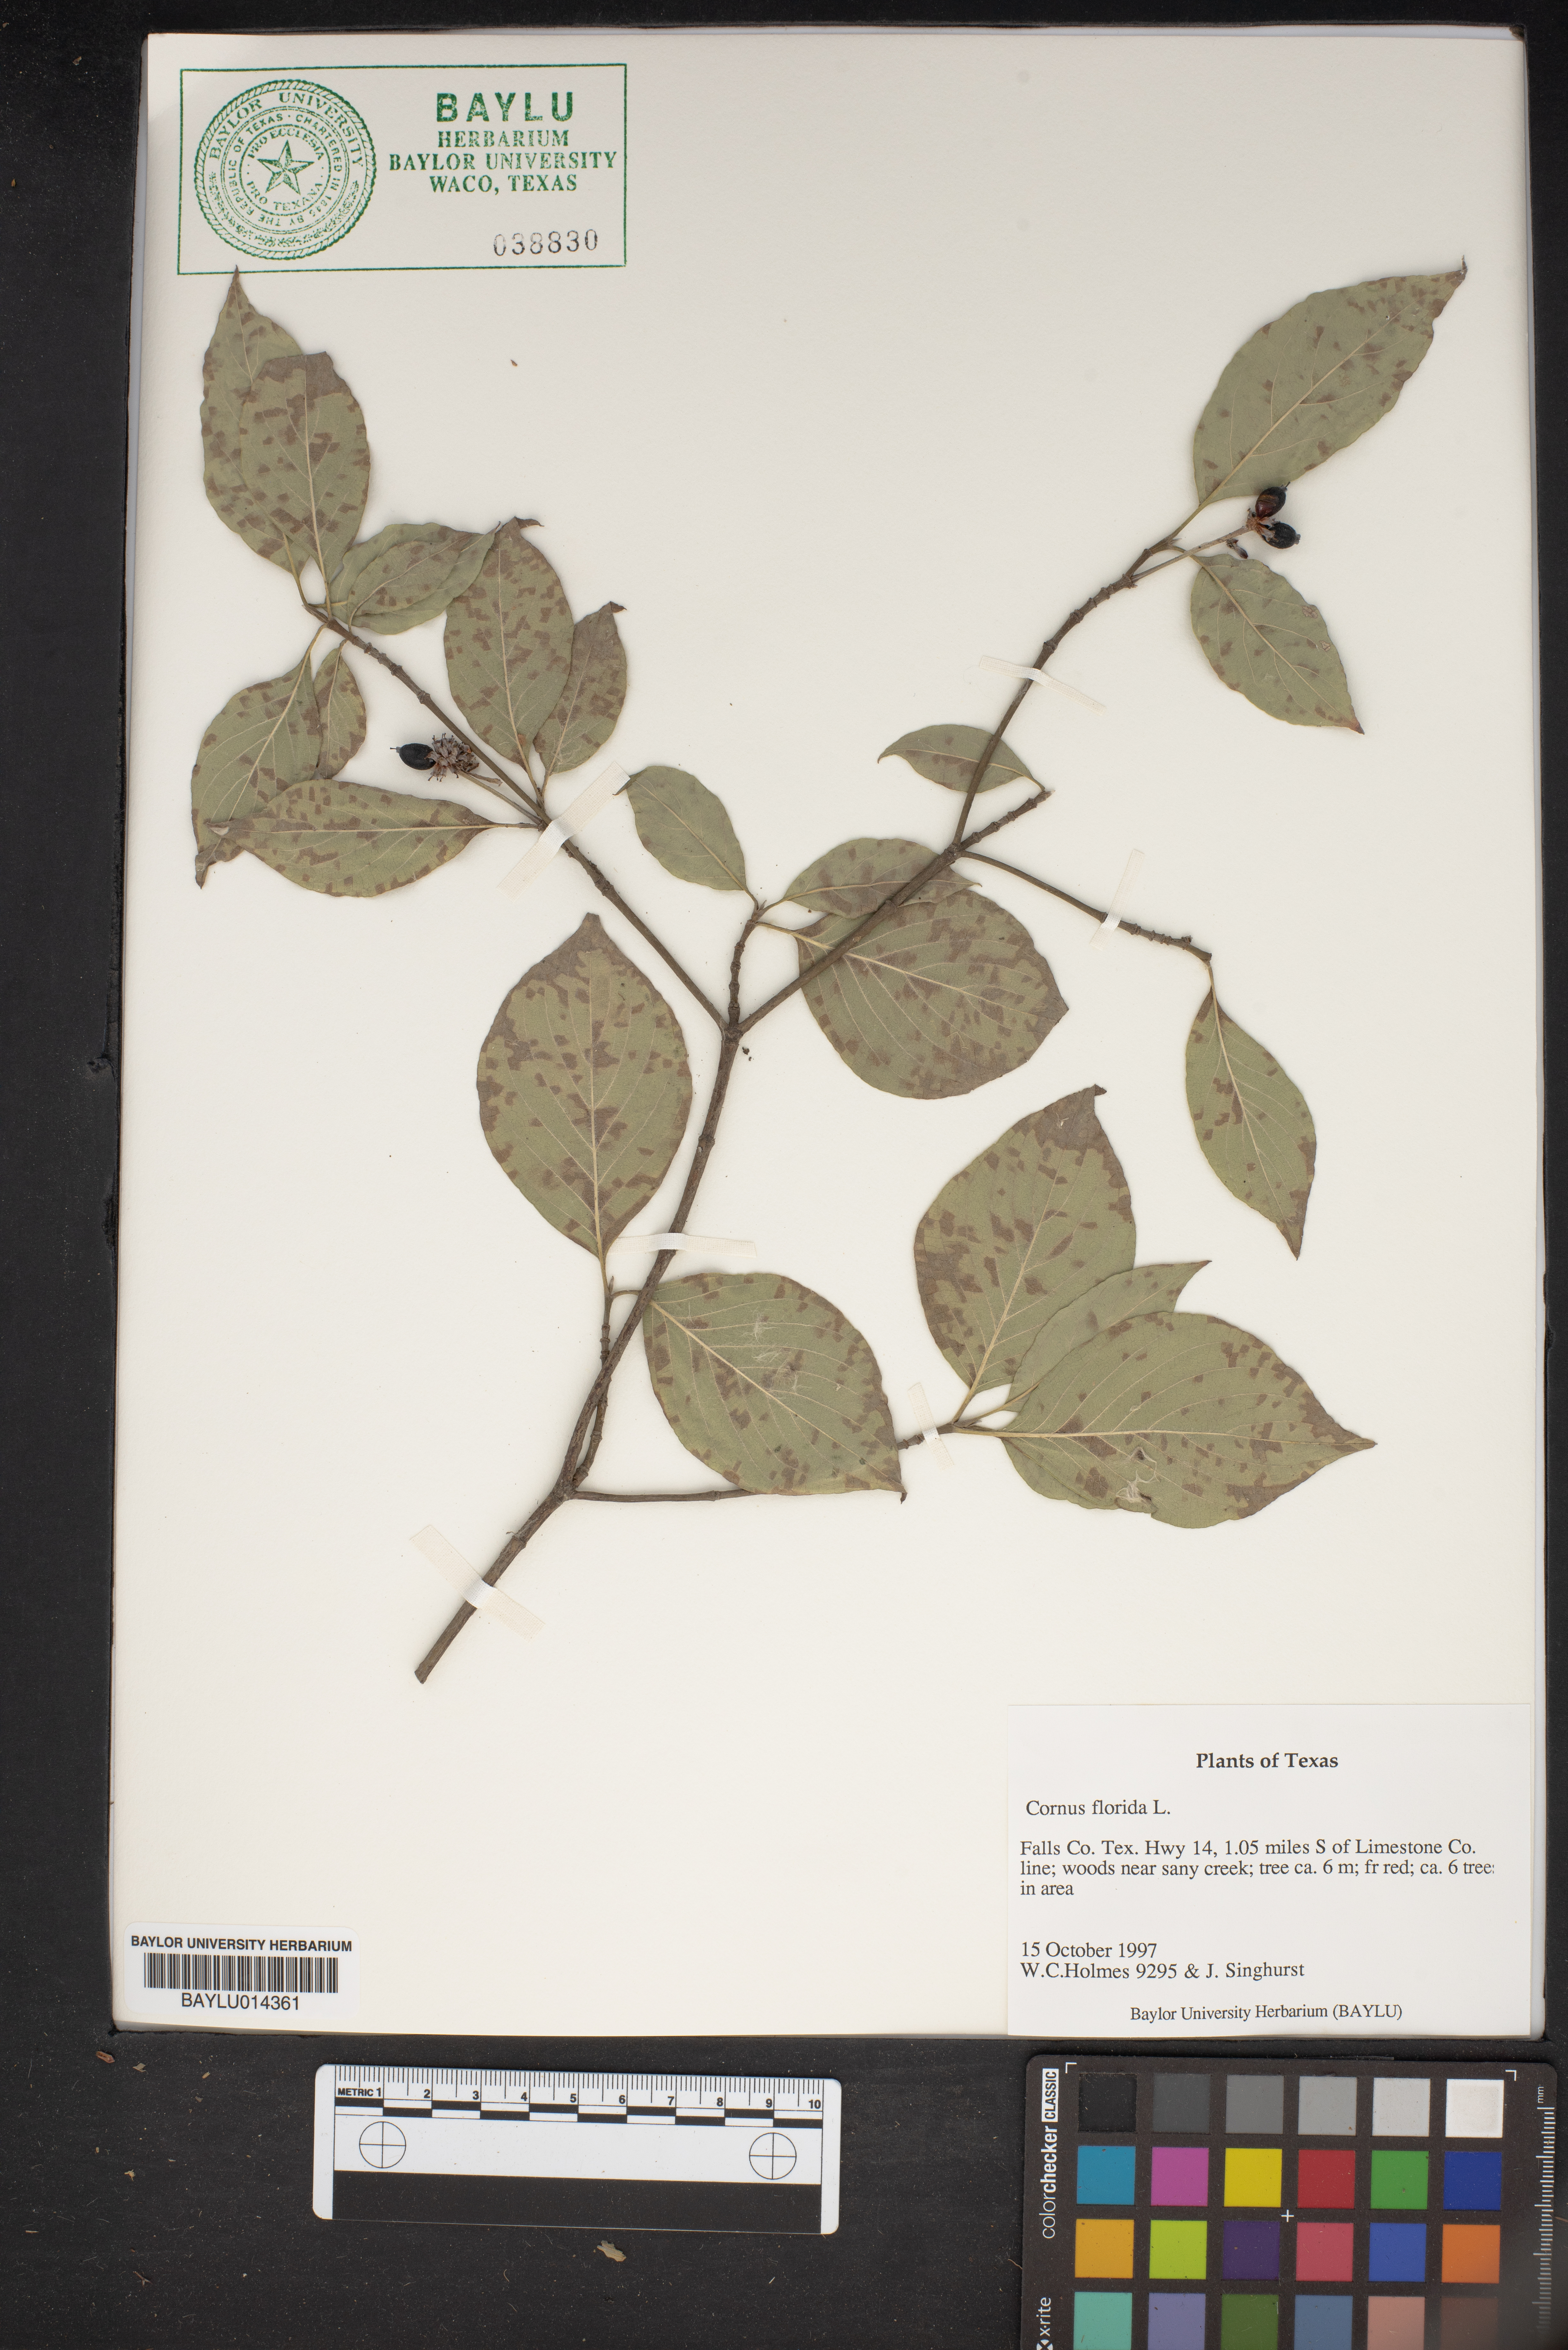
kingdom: Plantae
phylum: Tracheophyta
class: Magnoliopsida
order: Cornales
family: Cornaceae
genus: Cornus
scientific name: Cornus florida
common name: Flowering dogwood
